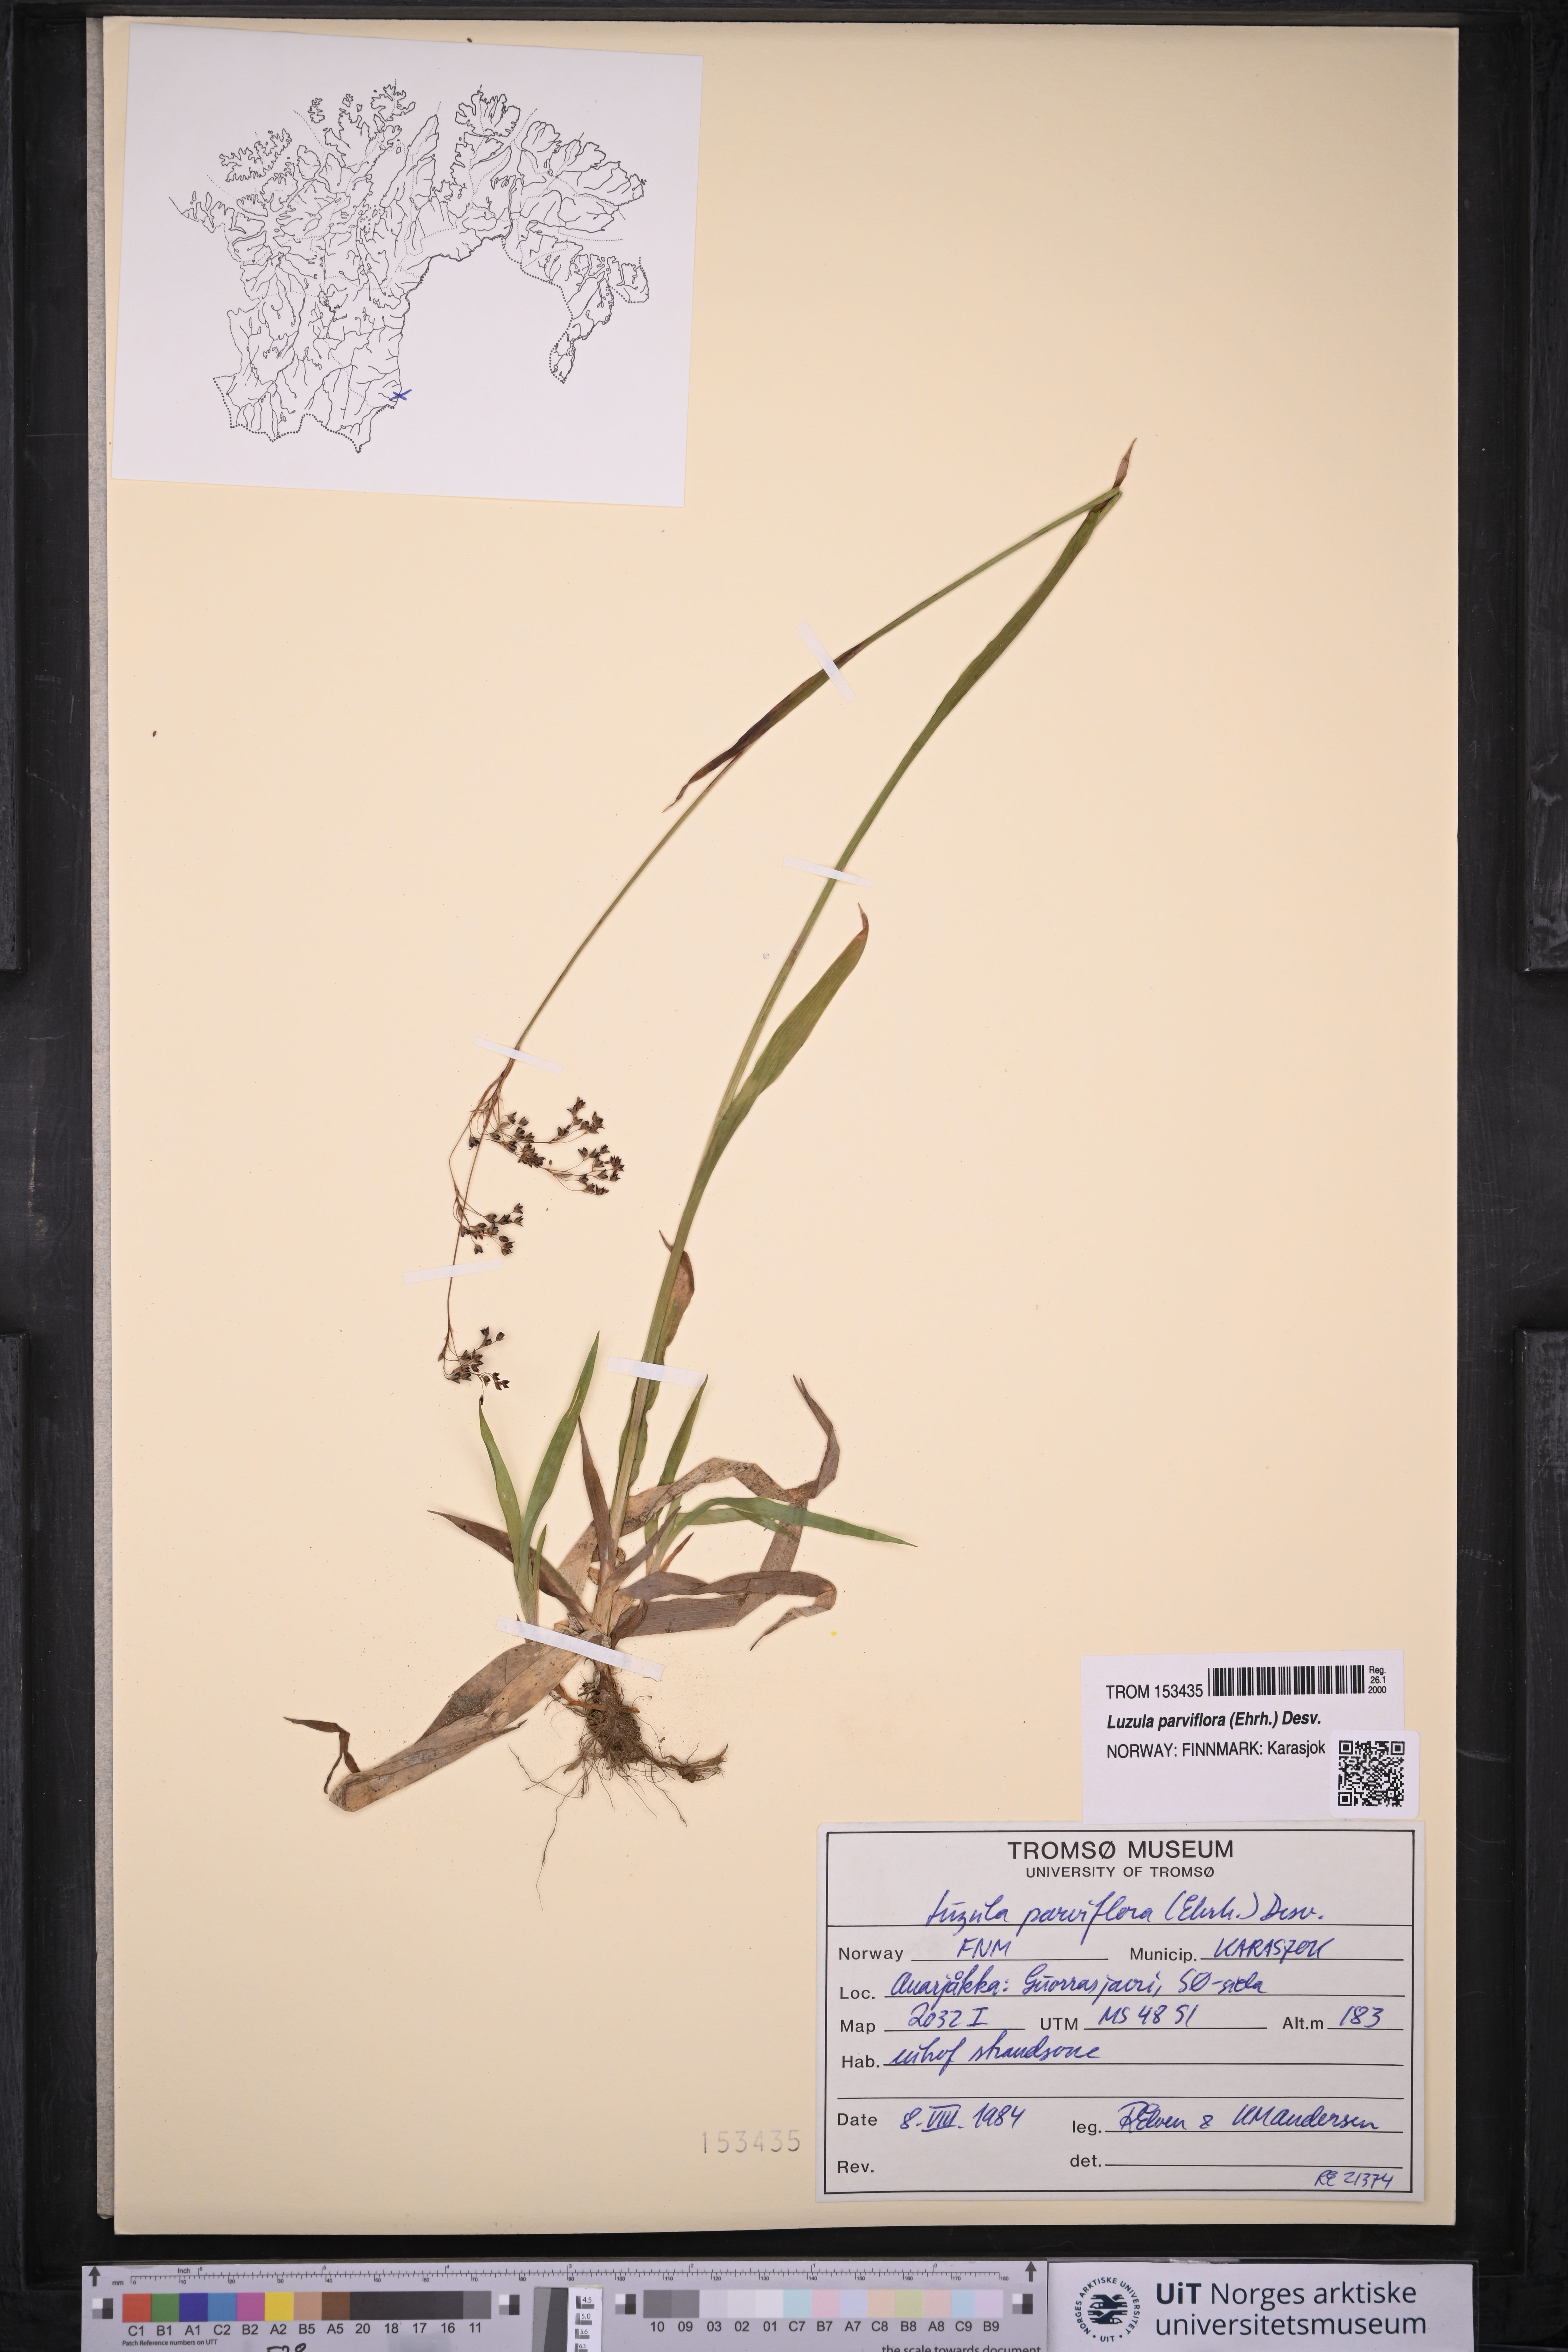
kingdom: Plantae
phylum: Tracheophyta
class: Liliopsida
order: Poales
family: Juncaceae
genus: Luzula
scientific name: Luzula parviflora
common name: Millet woodrush
